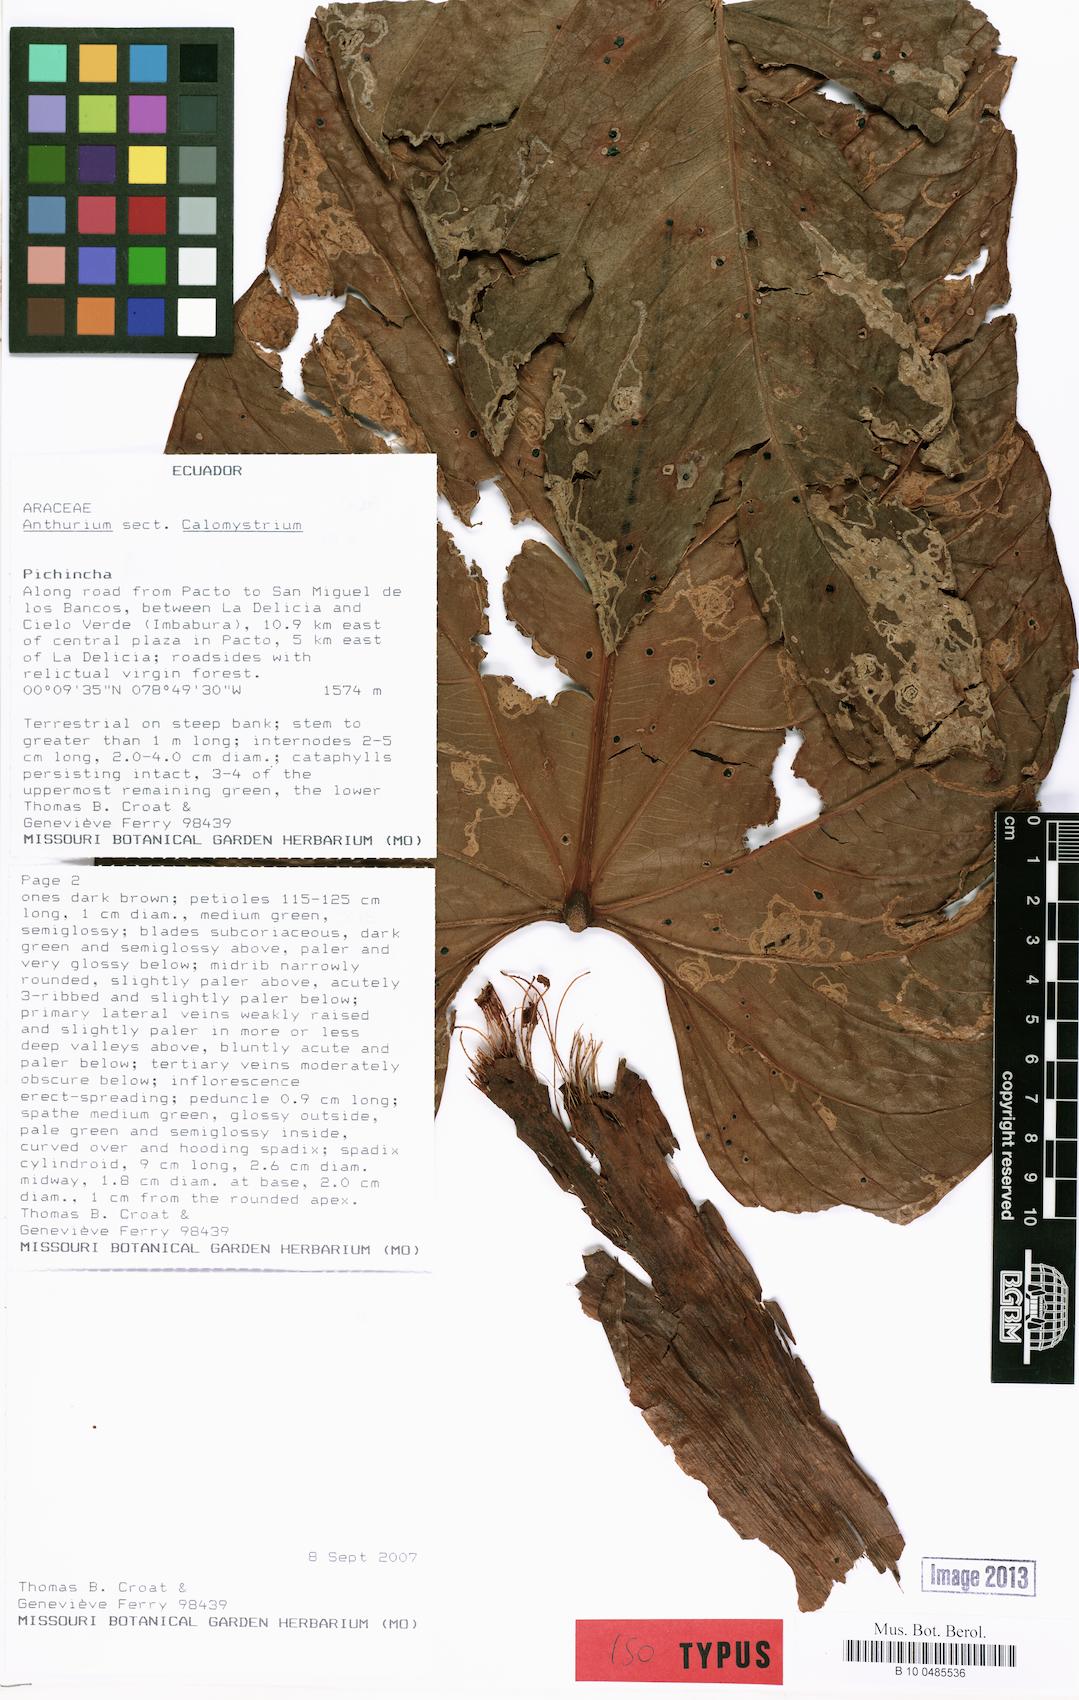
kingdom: Plantae
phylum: Tracheophyta
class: Liliopsida
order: Alismatales
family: Araceae
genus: Anthurium
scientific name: Anthurium genferryae
